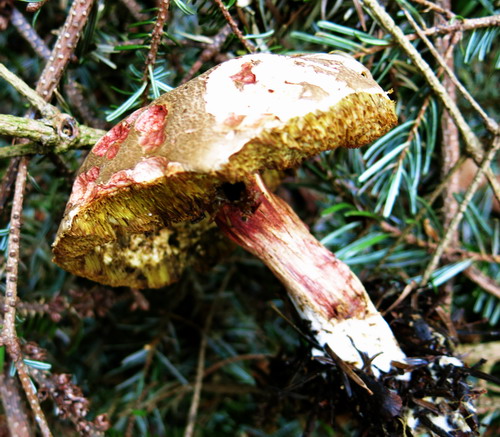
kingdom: Fungi
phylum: Basidiomycota
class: Agaricomycetes
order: Boletales
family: Boletaceae
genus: Xerocomellus
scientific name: Xerocomellus chrysenteron
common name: rødsprukken rørhat
